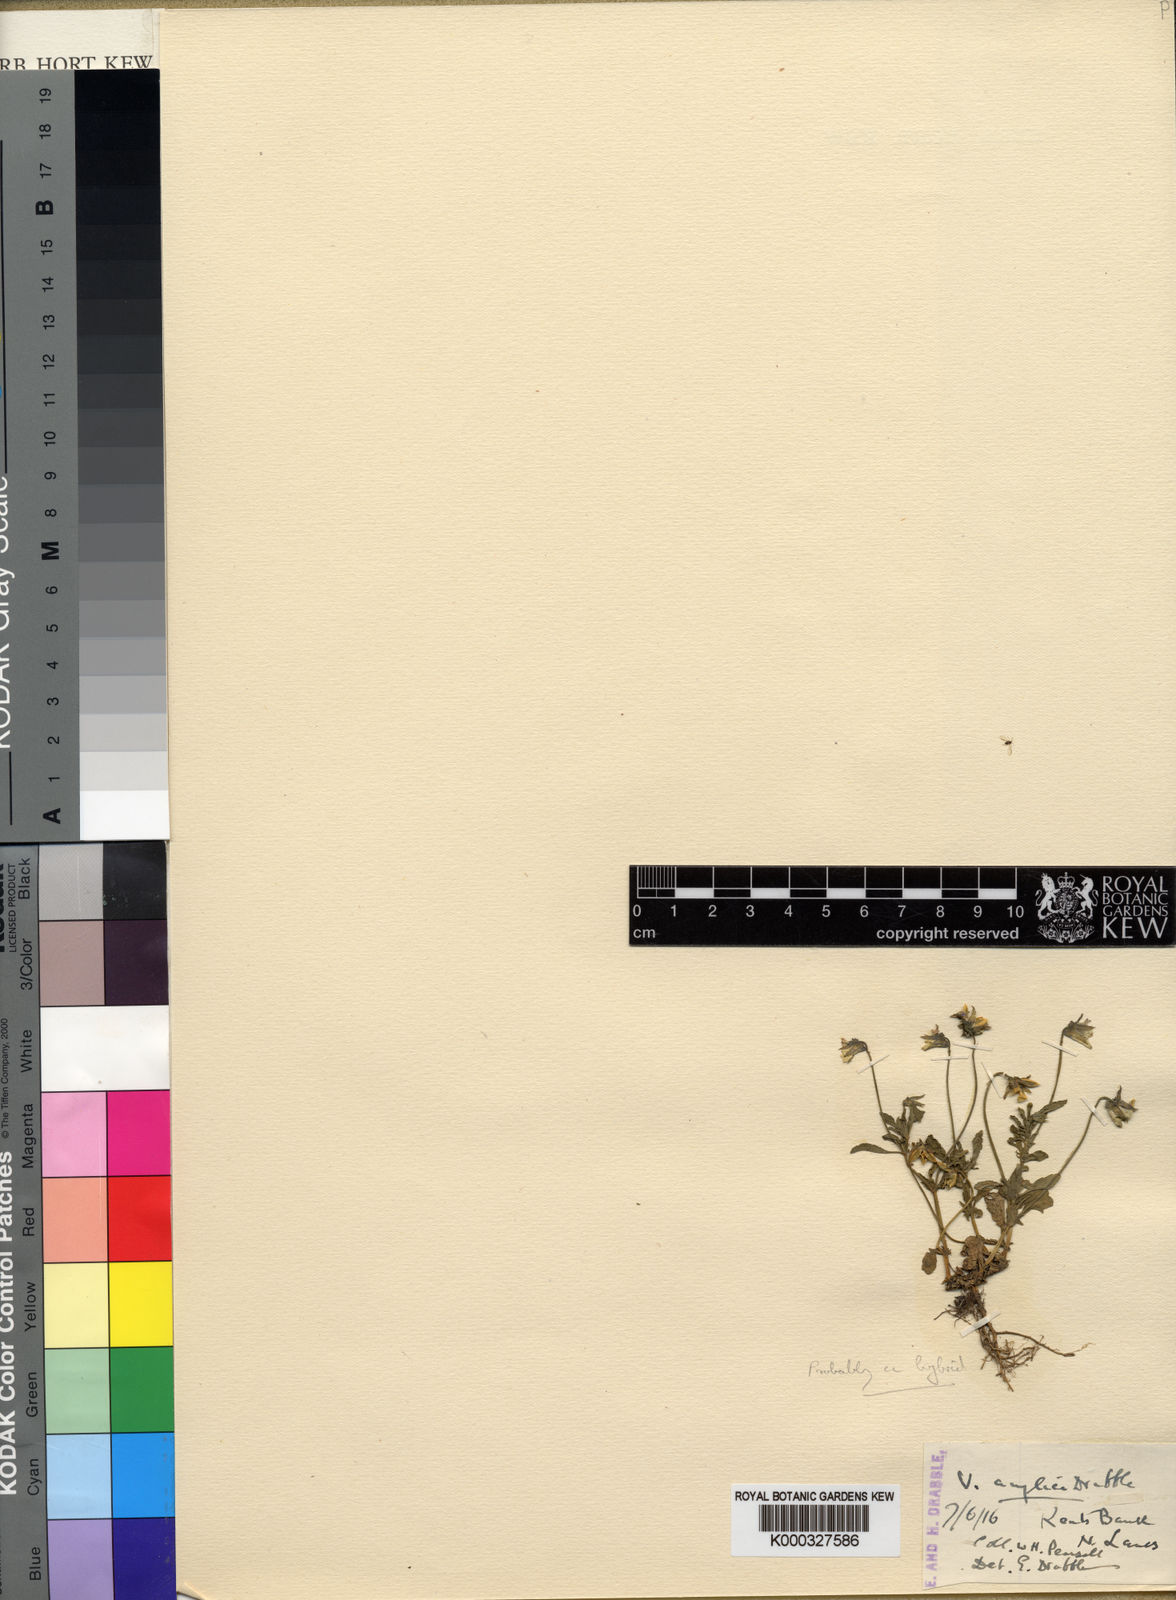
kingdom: Plantae
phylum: Tracheophyta
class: Magnoliopsida
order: Malpighiales
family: Violaceae
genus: Viola
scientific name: Viola arvensis
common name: Field pansy
